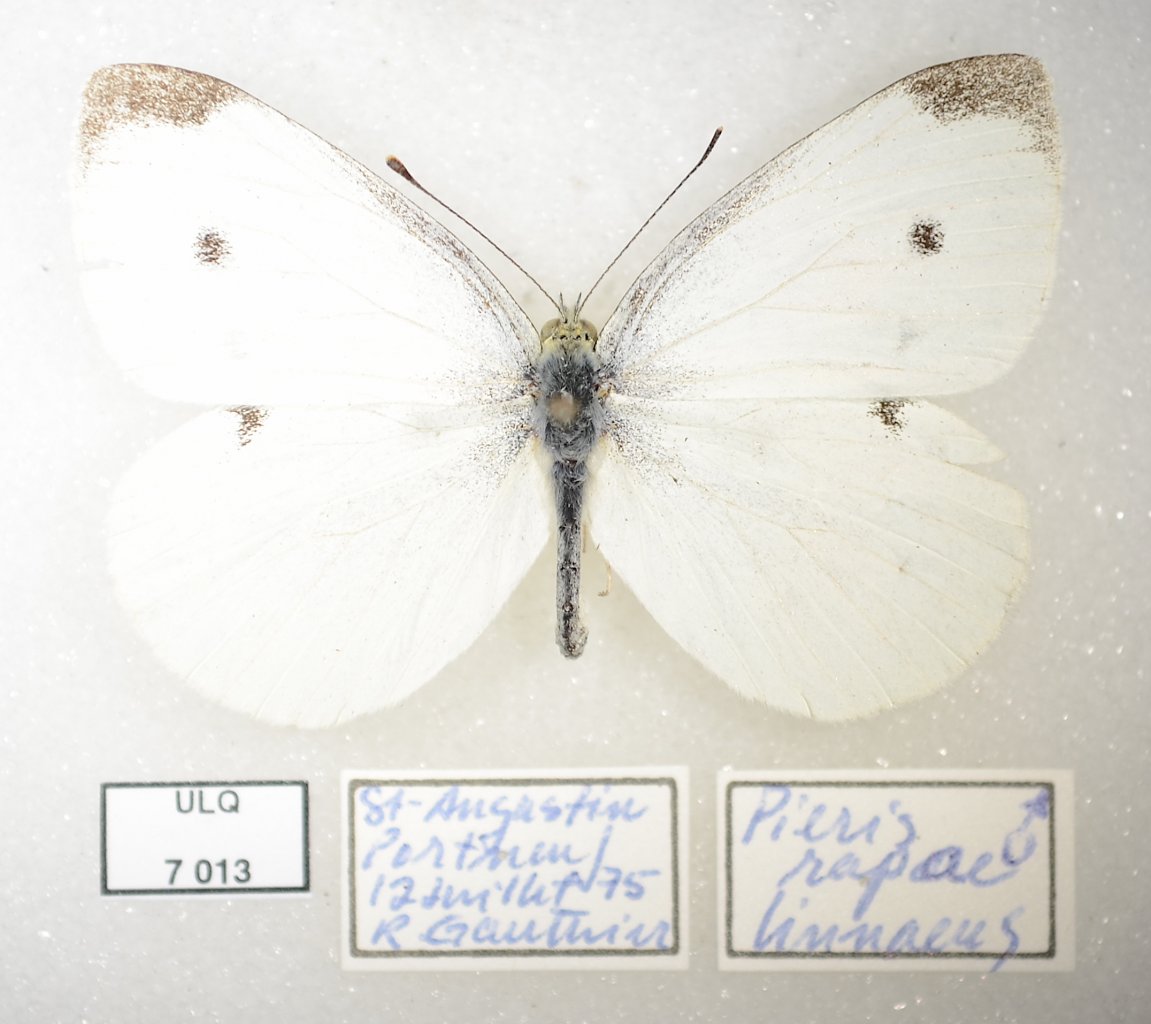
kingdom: Animalia
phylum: Arthropoda
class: Insecta
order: Lepidoptera
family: Pieridae
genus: Pieris
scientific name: Pieris rapae
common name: Cabbage White
